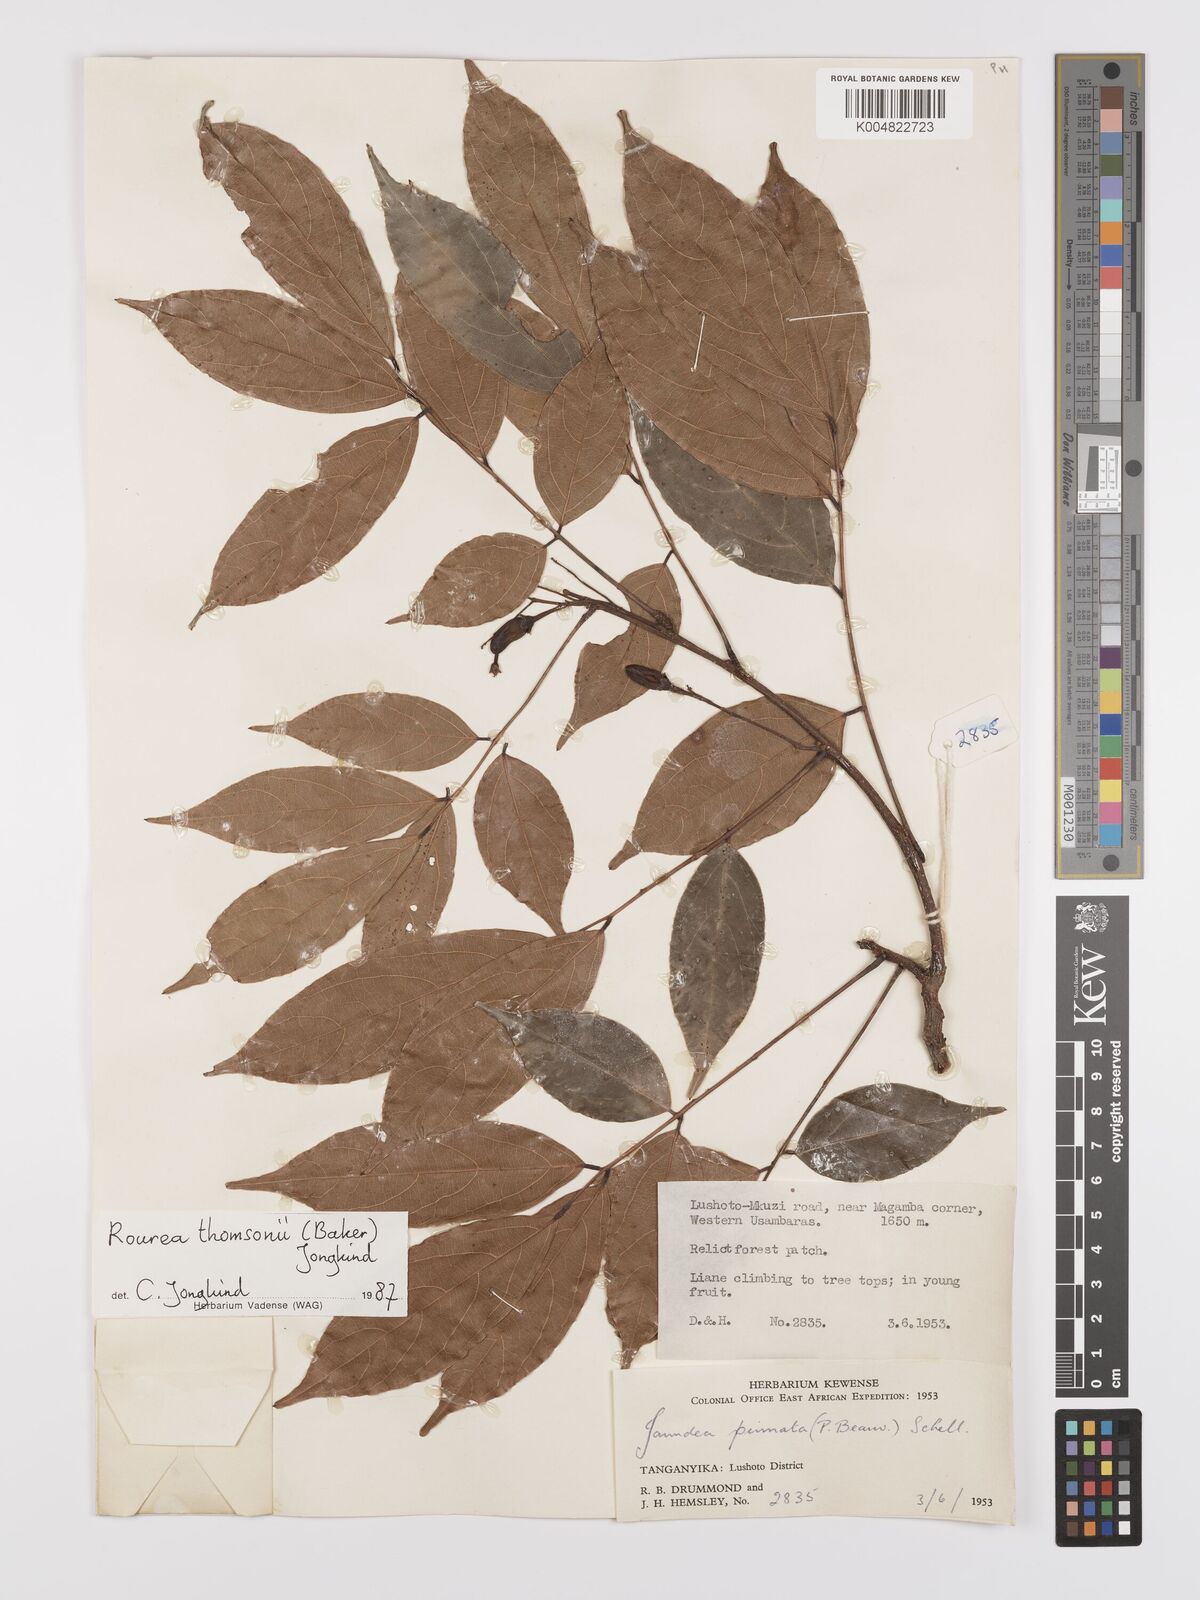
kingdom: Plantae
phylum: Tracheophyta
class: Magnoliopsida
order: Oxalidales
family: Connaraceae
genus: Rourea
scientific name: Rourea pinnata
